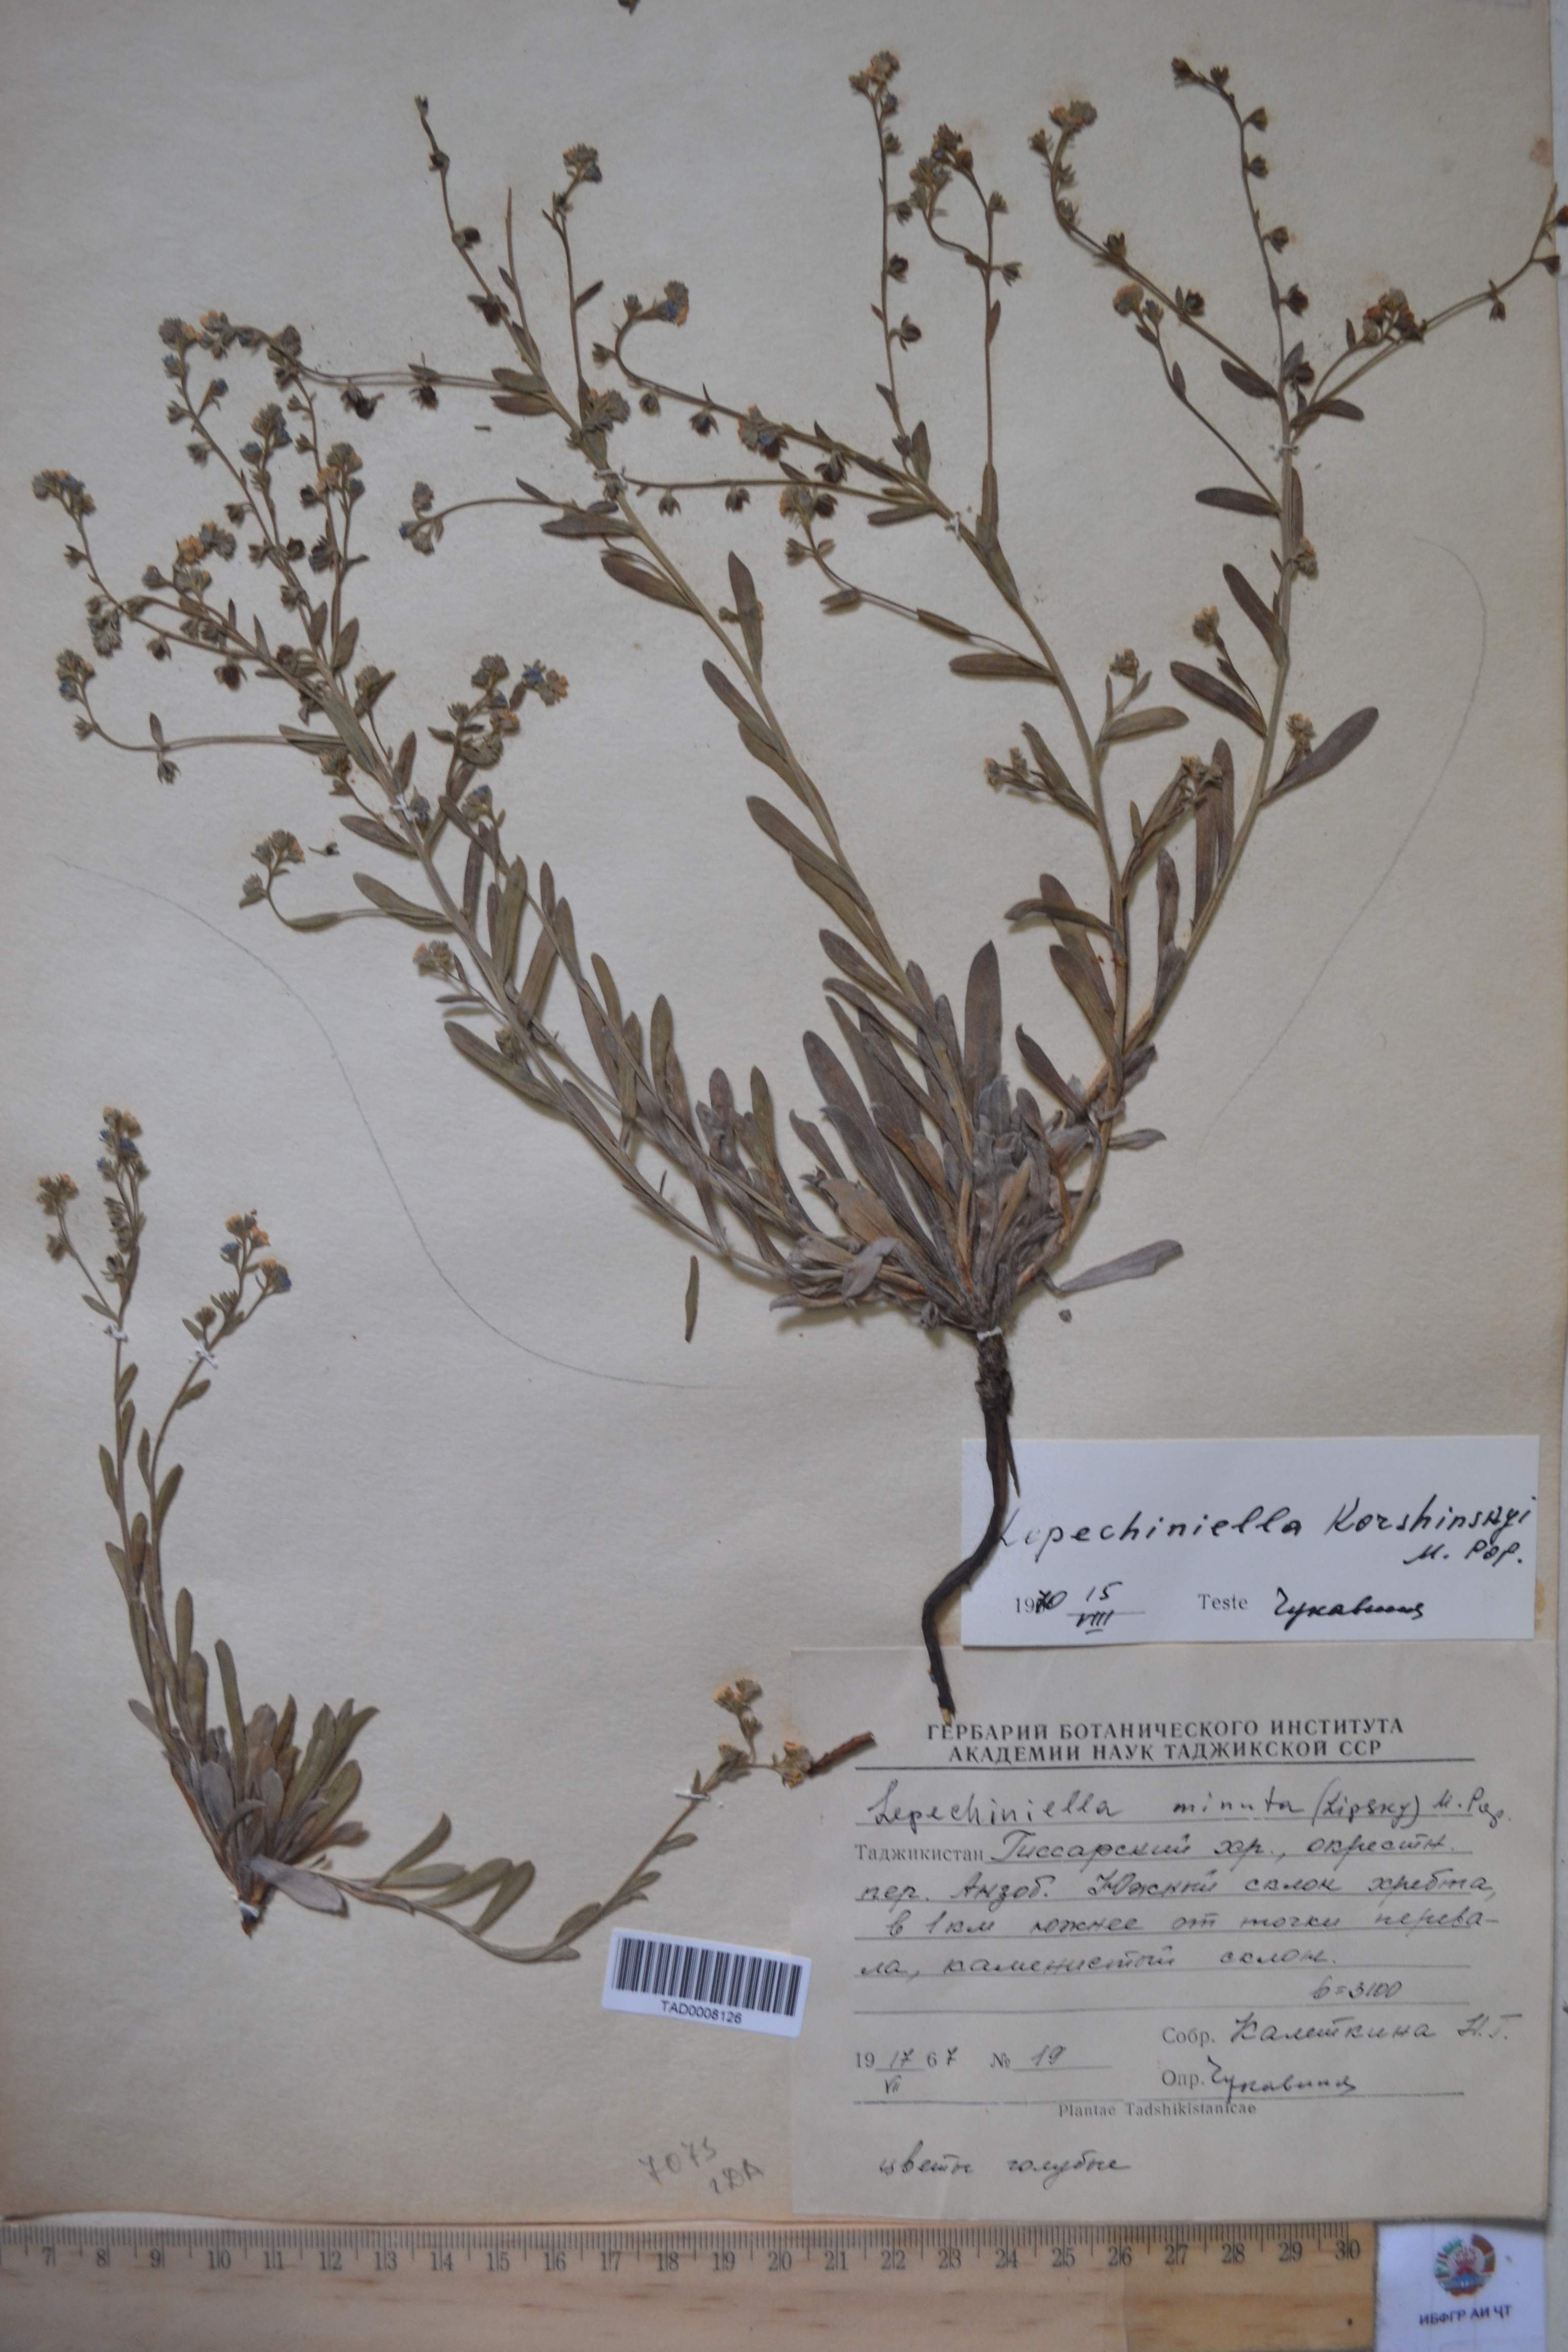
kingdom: Plantae
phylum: Tracheophyta
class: Magnoliopsida
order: Boraginales
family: Boraginaceae
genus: Lepechiniella
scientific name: Lepechiniella
